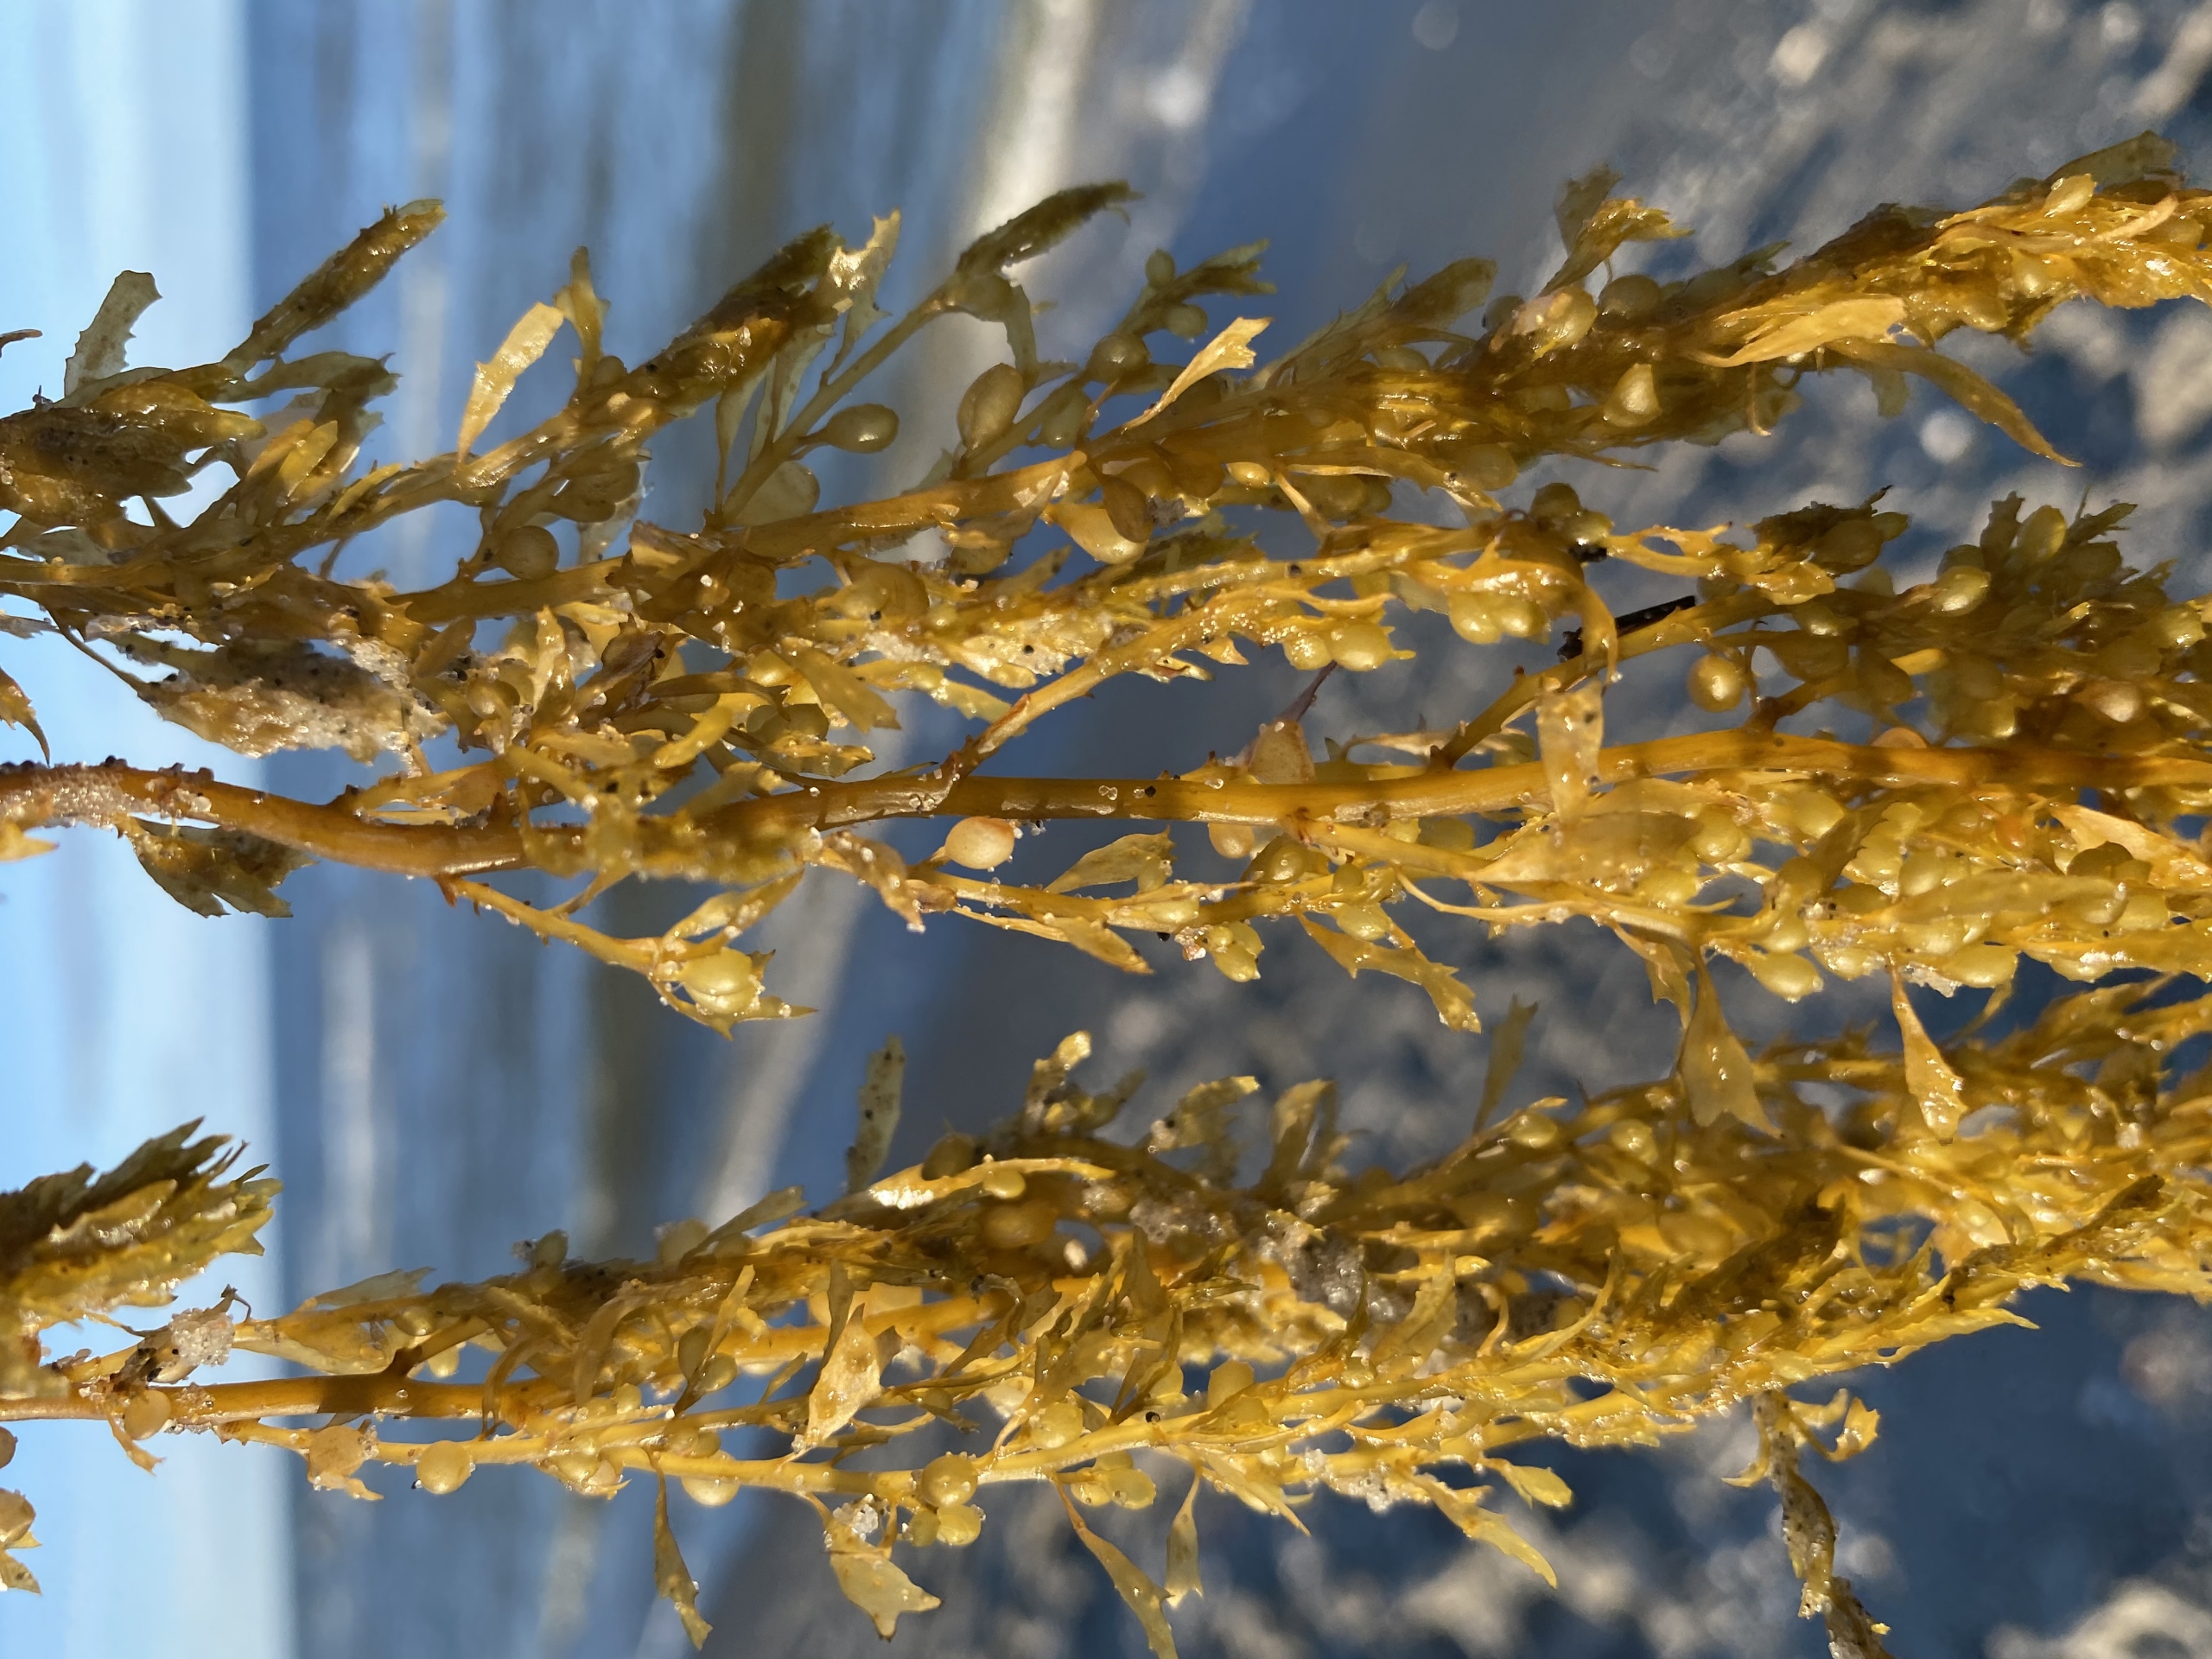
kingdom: Chromista
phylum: Ochrophyta
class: Phaeophyceae
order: Fucales
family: Sargassaceae
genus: Sargassum
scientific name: Sargassum muticum
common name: Butblæret sargassotang
